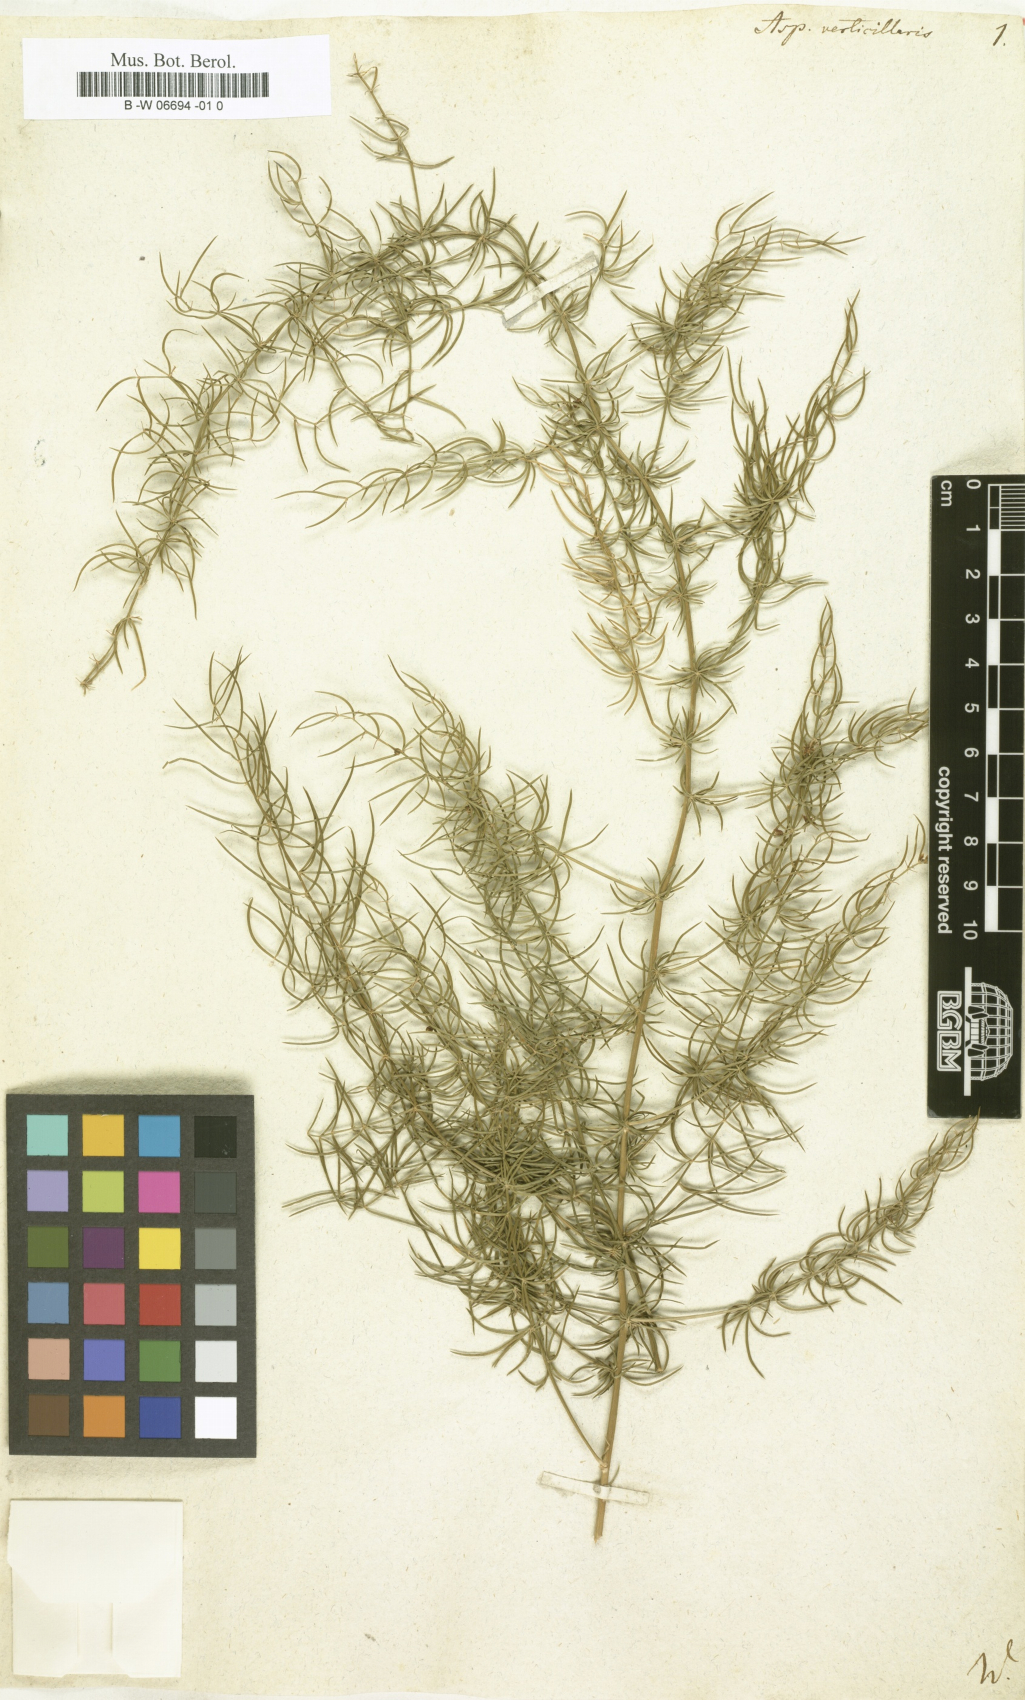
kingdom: Plantae
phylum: Tracheophyta
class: Liliopsida
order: Asparagales
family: Asparagaceae
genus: Asparagus
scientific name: Asparagus verticillatus
